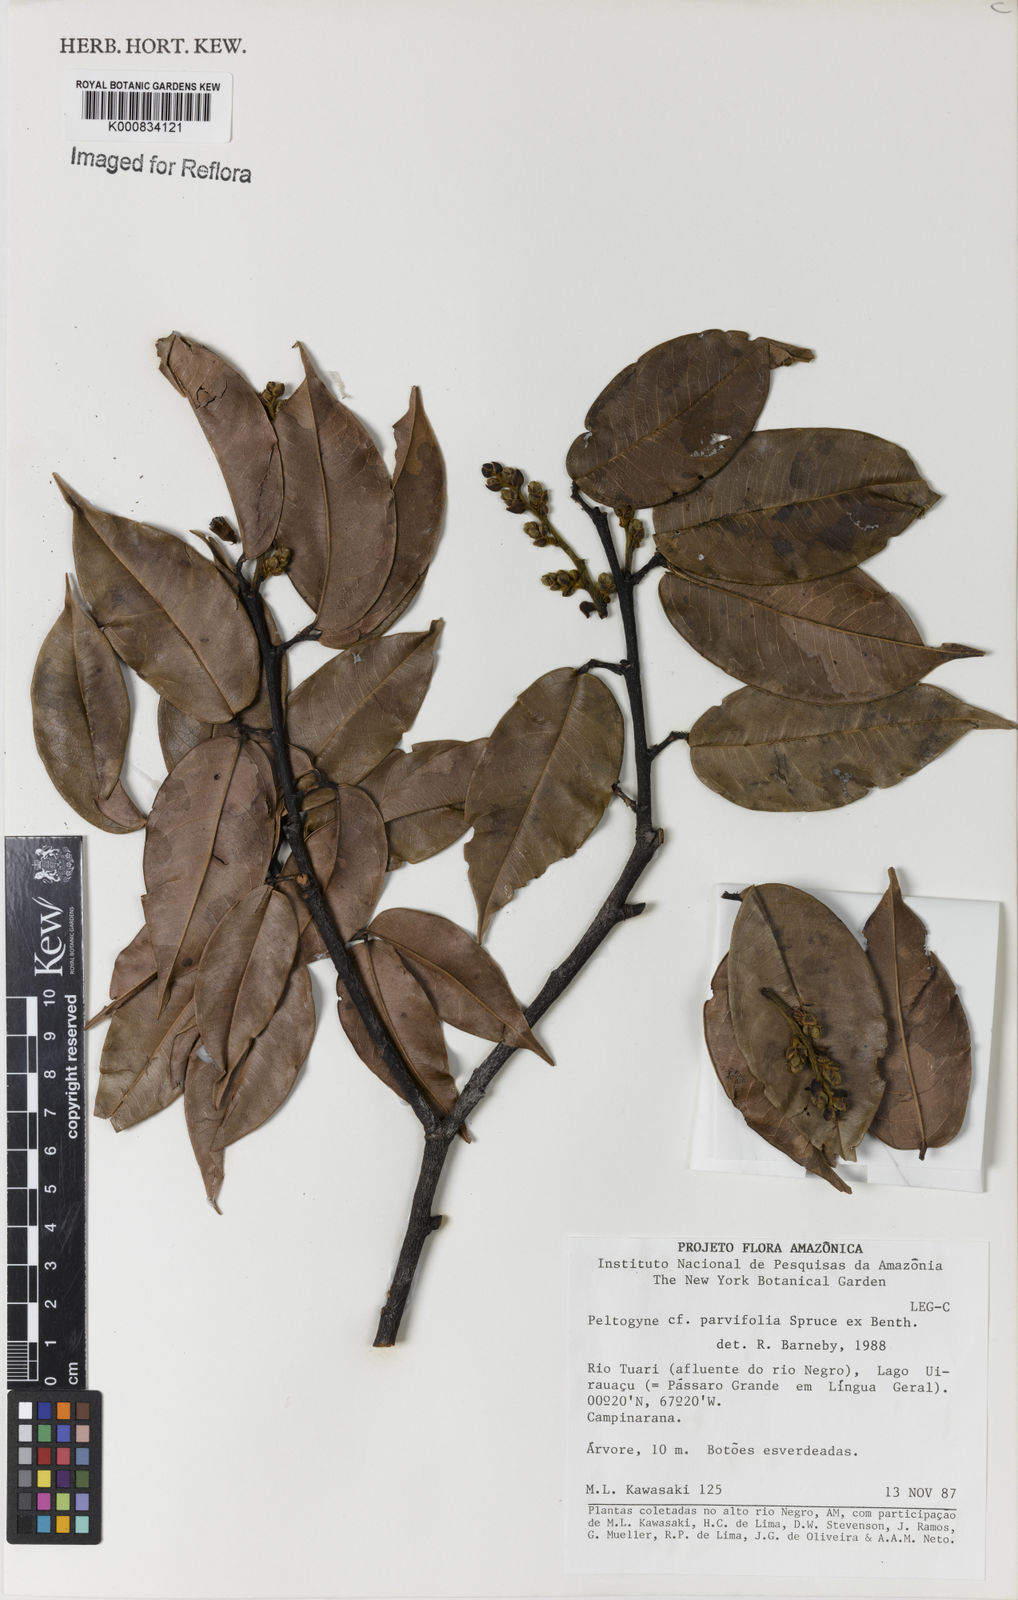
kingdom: Plantae
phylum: Tracheophyta
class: Magnoliopsida
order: Fabales
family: Fabaceae
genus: Peltogyne
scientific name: Peltogyne parvifolia
